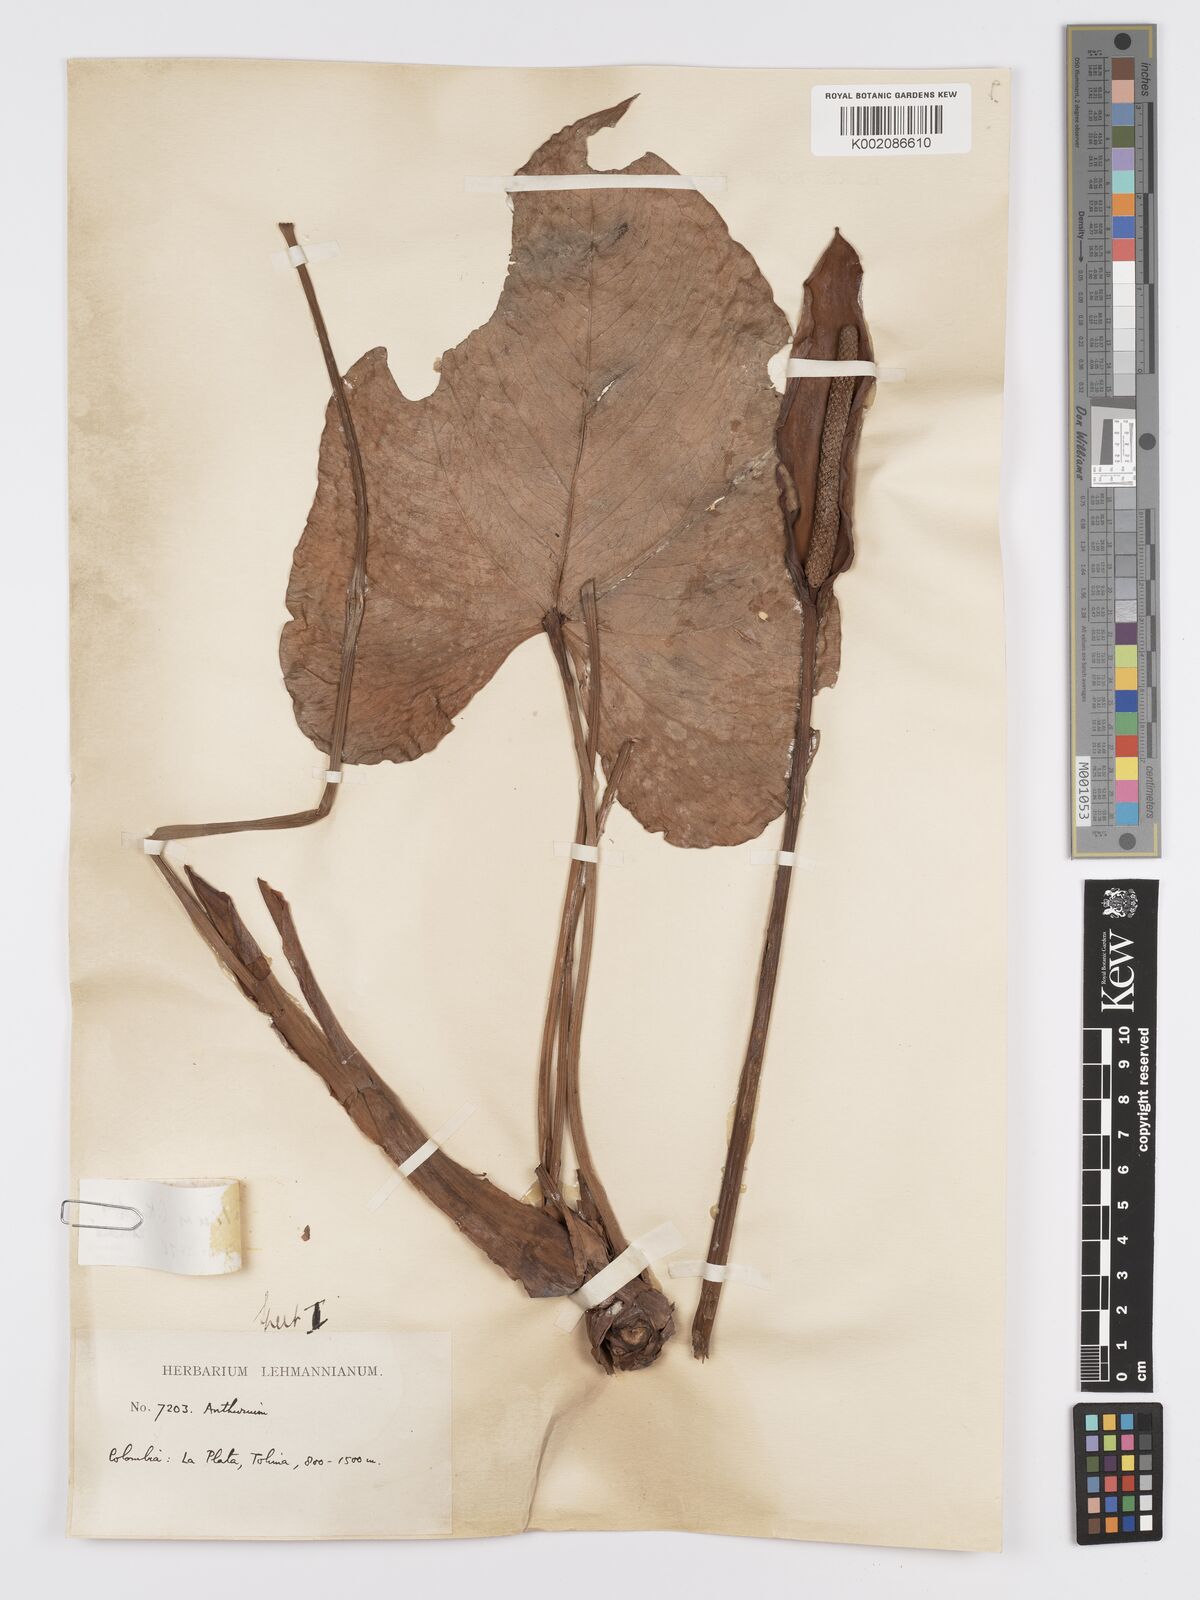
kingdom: Plantae
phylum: Tracheophyta
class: Liliopsida
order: Alismatales
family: Araceae
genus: Anthurium
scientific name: Anthurium nymphaeifolium
